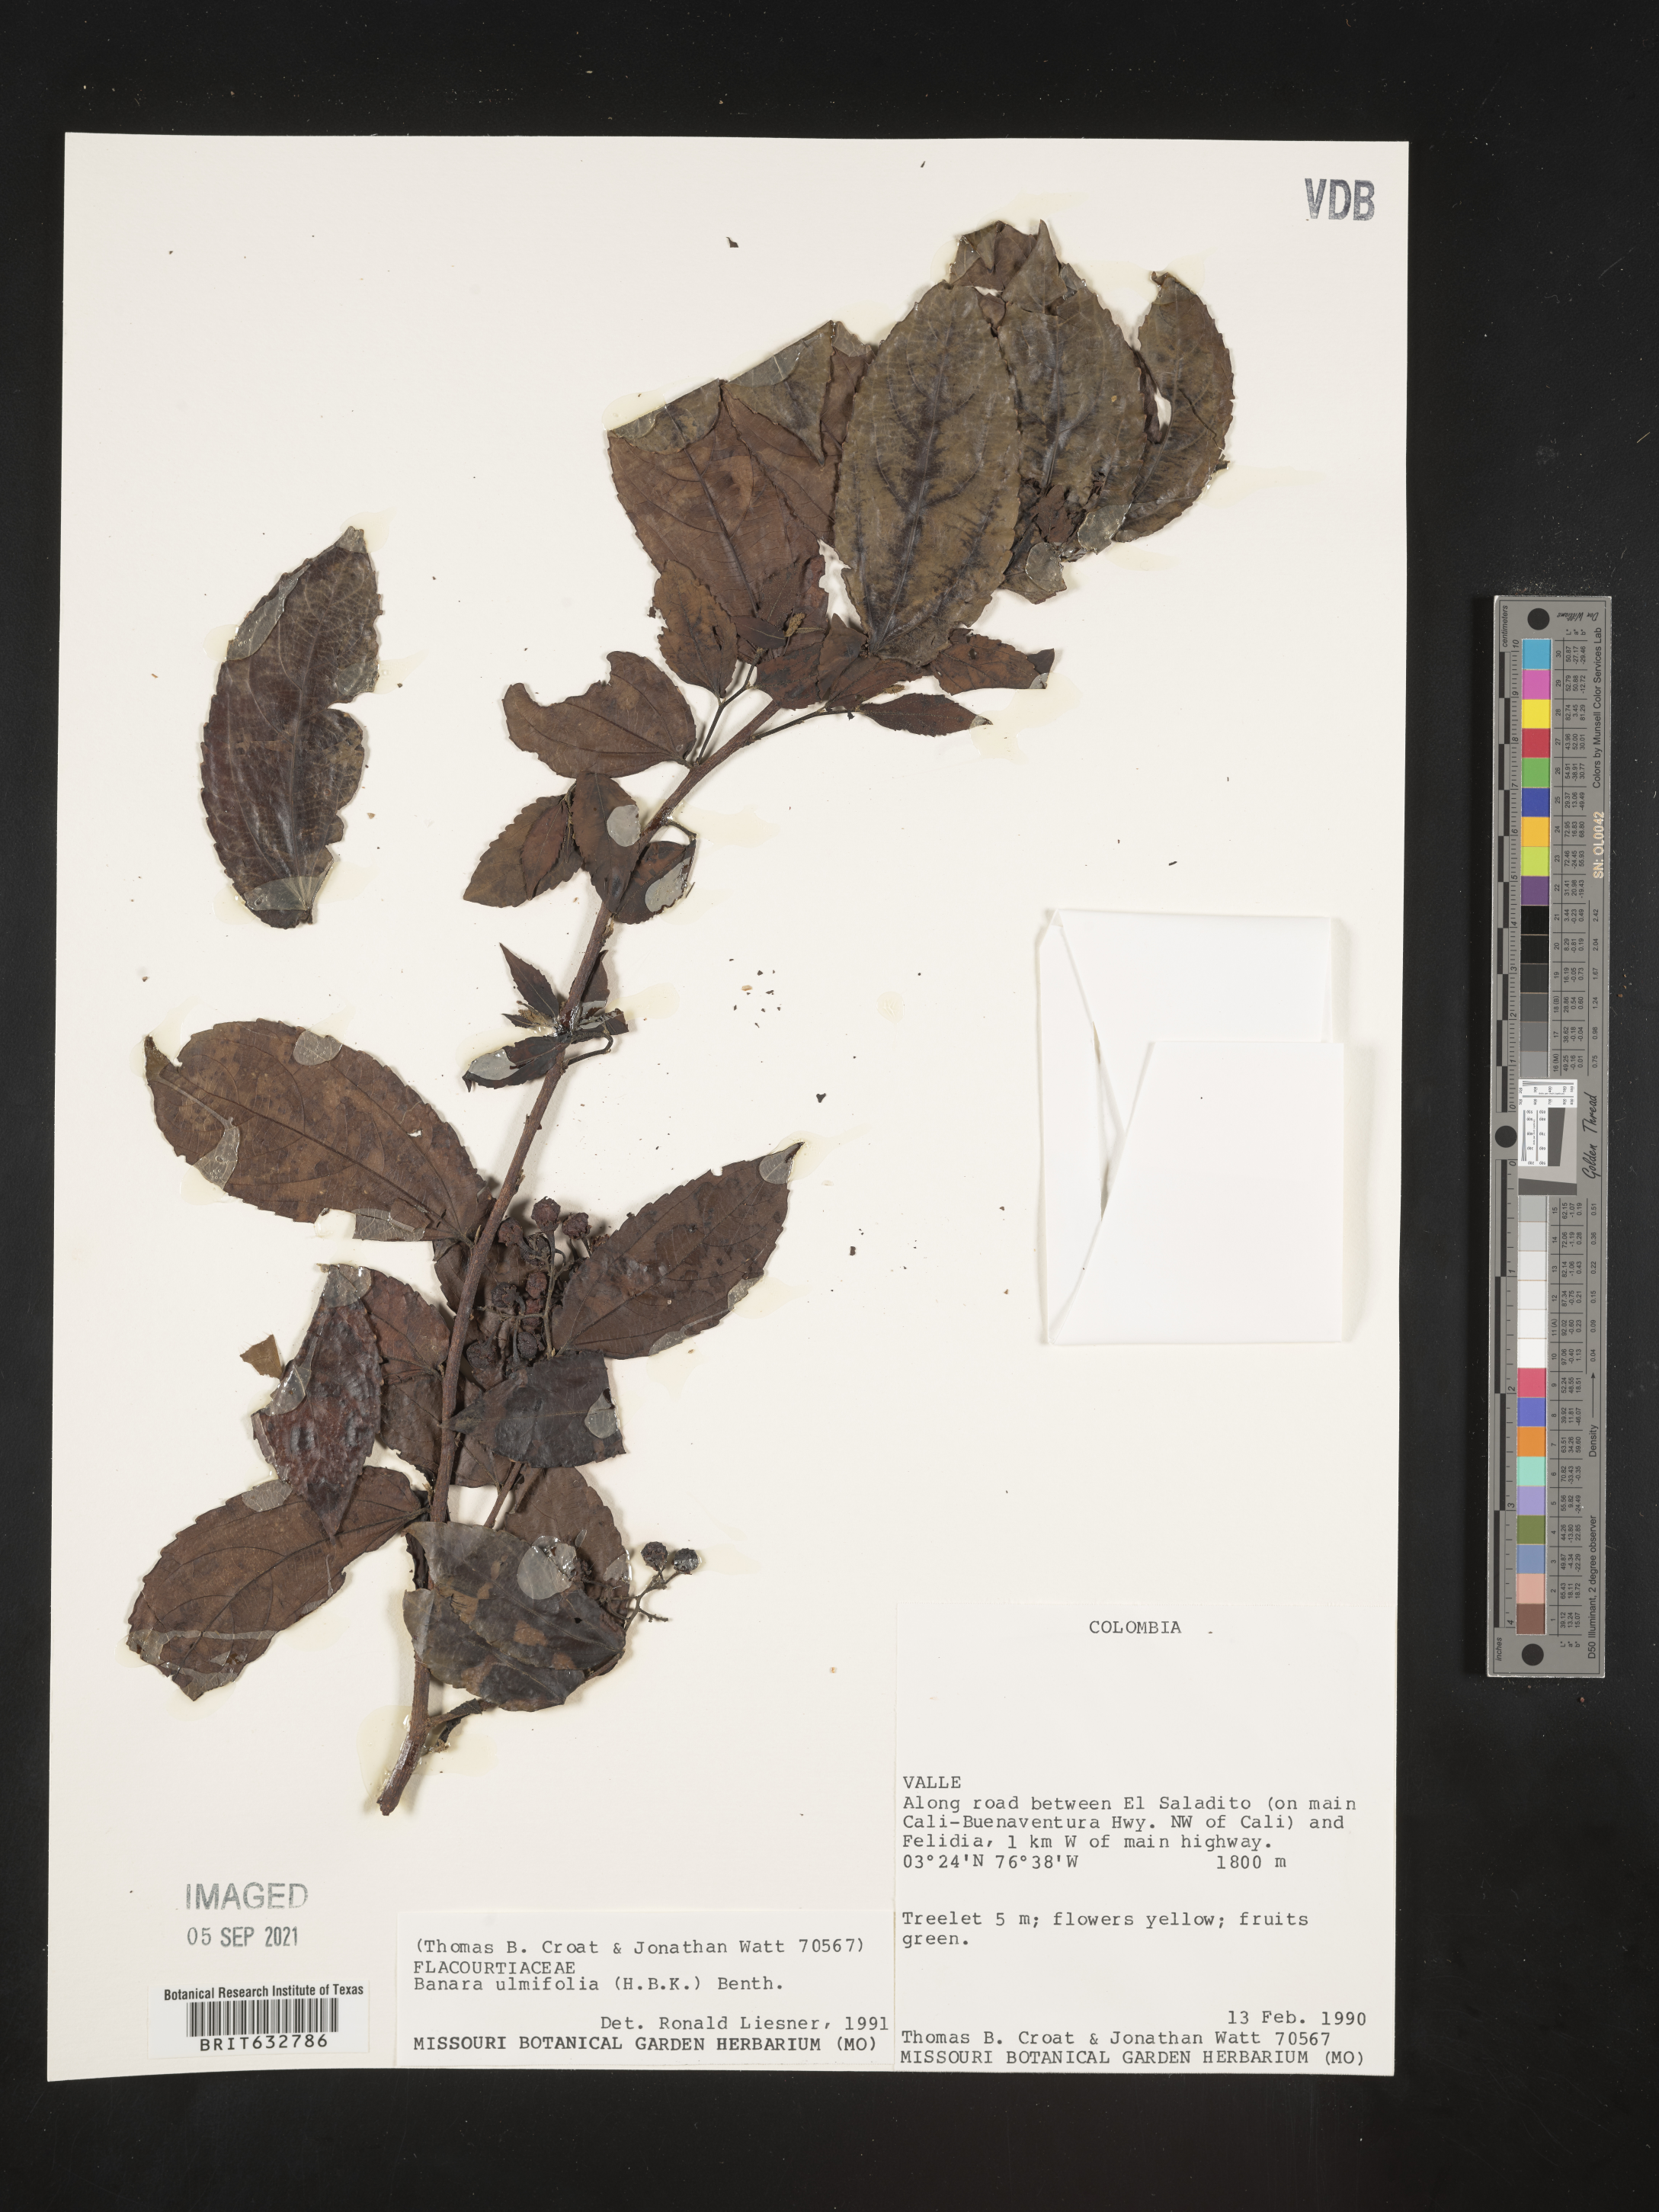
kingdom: Plantae
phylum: Tracheophyta
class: Magnoliopsida
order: Malpighiales
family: Salicaceae
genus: Banara
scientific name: Banara
